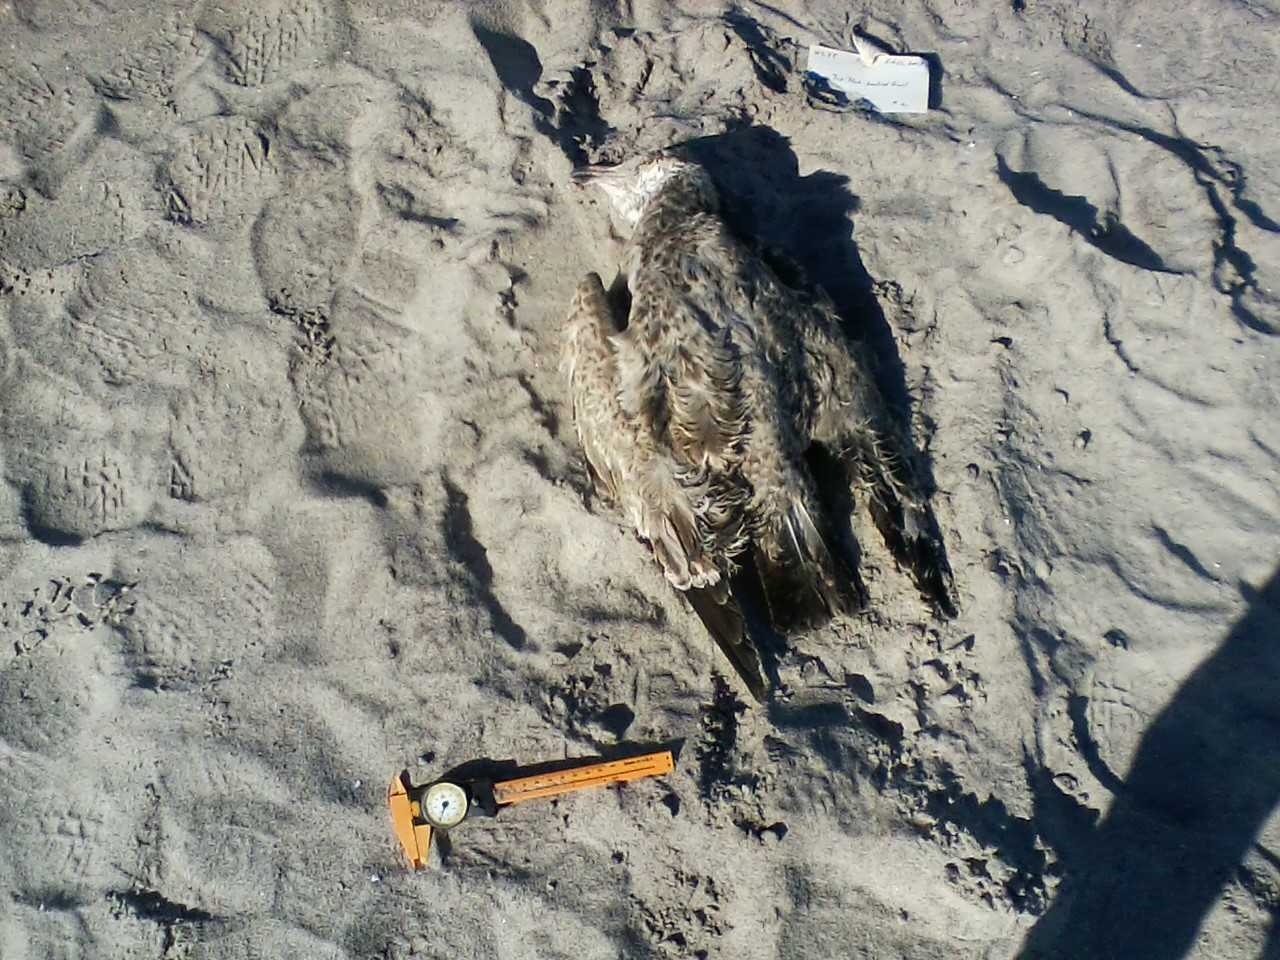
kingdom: Animalia
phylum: Chordata
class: Aves
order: Charadriiformes
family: Laridae
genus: Larus
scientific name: Larus smithsonianus
